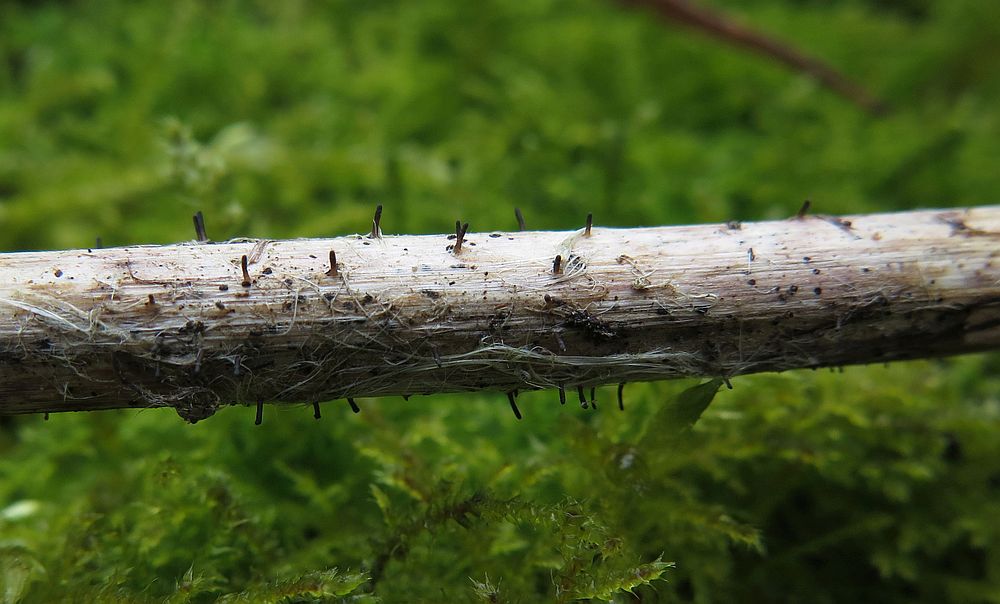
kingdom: Fungi
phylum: Ascomycota
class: Dothideomycetes
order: Acrospermales
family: Acrospermaceae
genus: Acrospermum
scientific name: Acrospermum compressum
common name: nælde-stængeltunge
